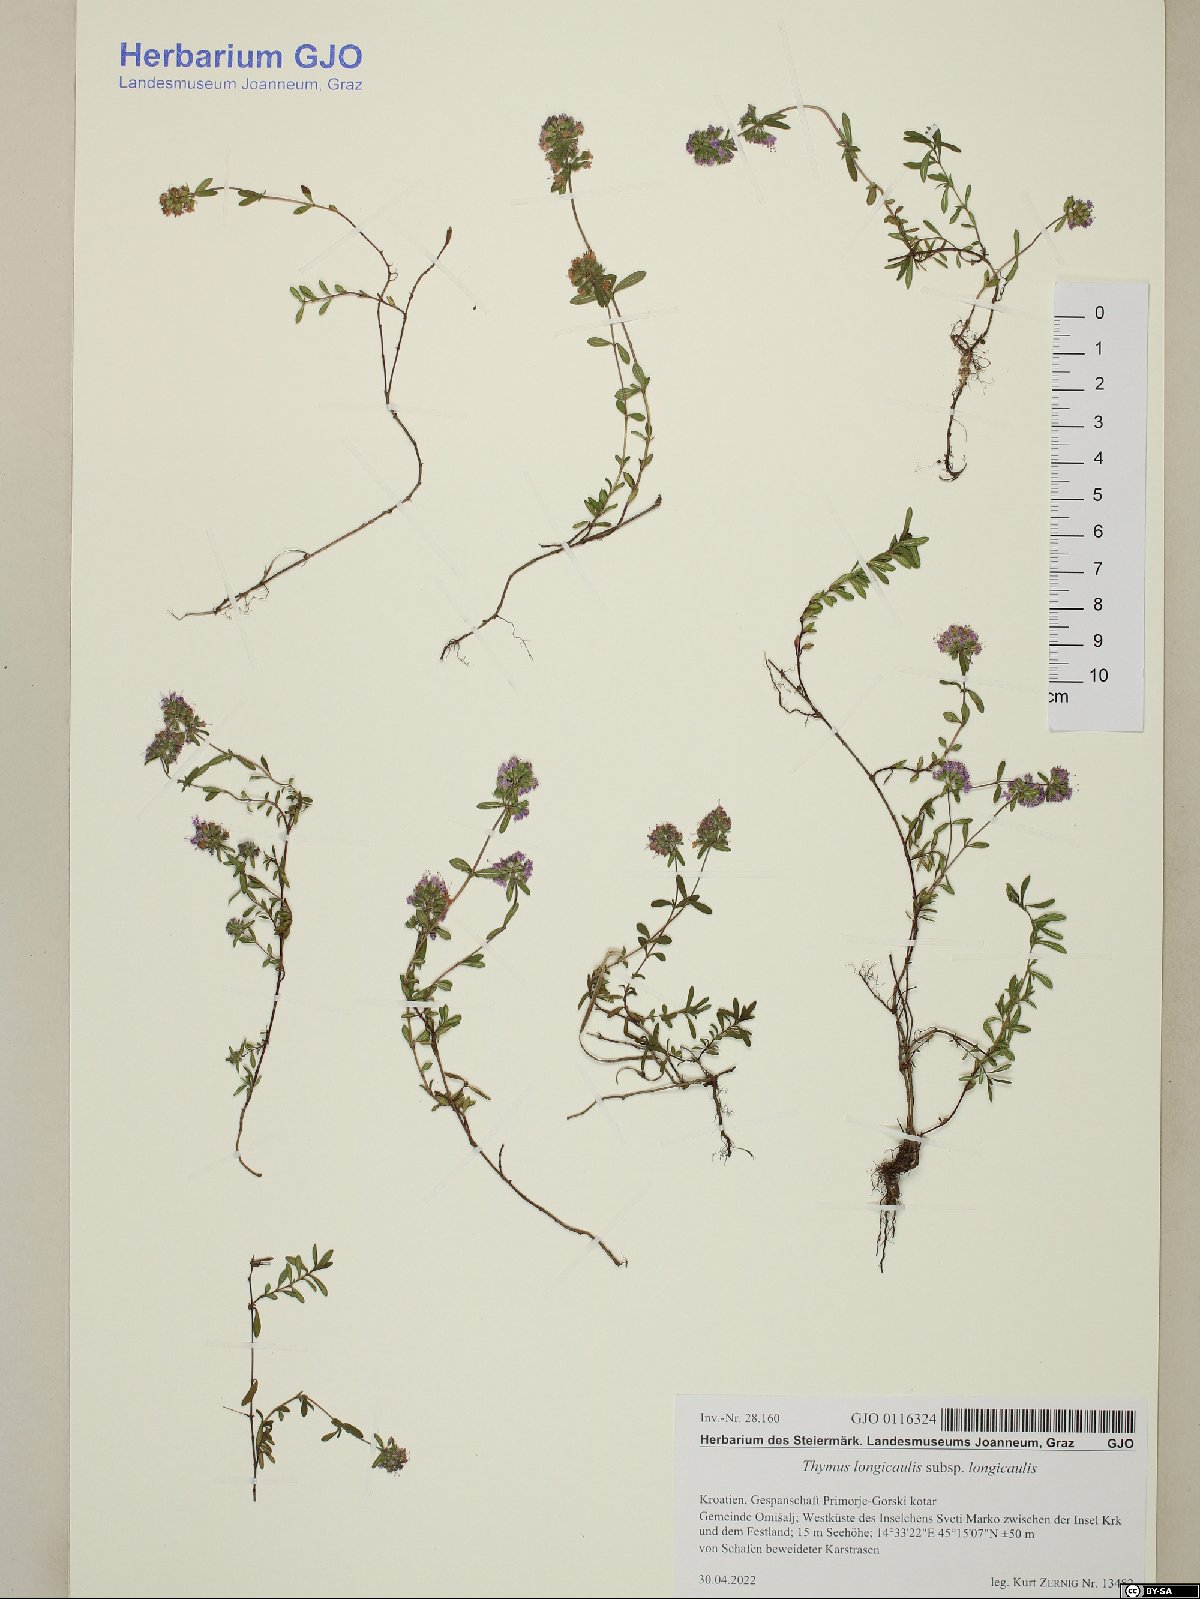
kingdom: Plantae
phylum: Tracheophyta
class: Magnoliopsida
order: Lamiales
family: Lamiaceae
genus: Thymus
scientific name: Thymus longicaulis
